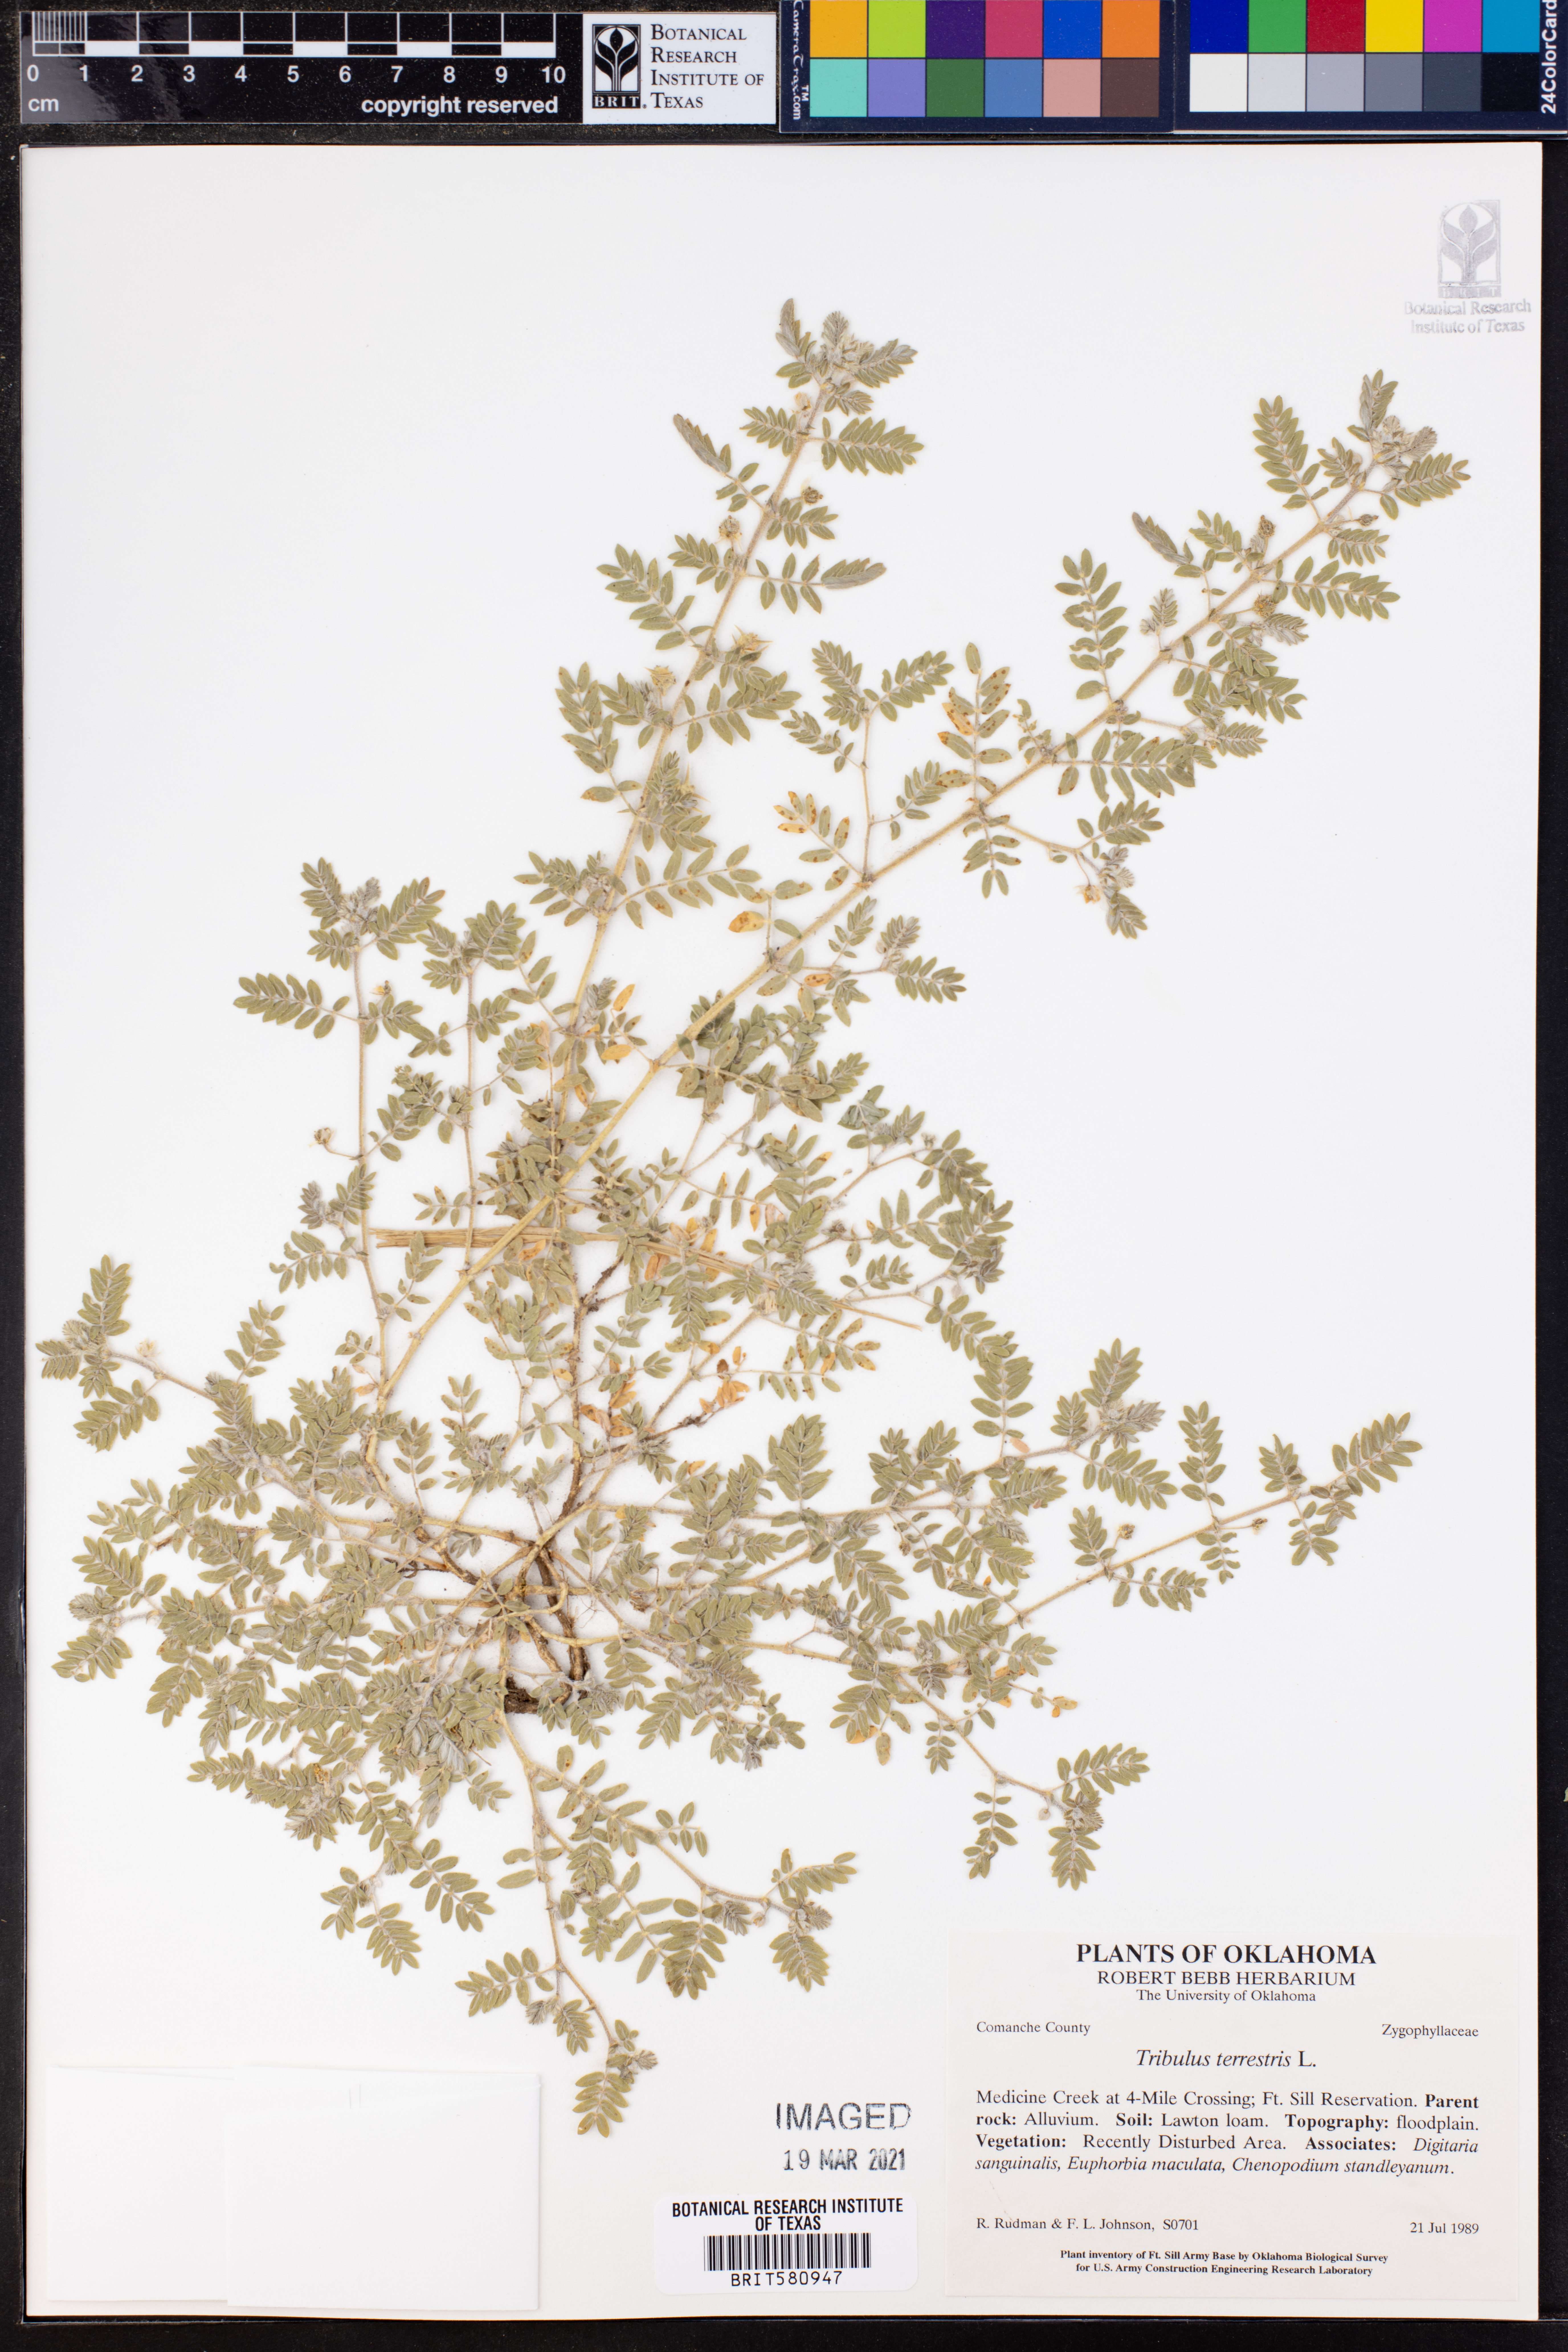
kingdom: Plantae
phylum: Tracheophyta
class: Magnoliopsida
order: Zygophyllales
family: Zygophyllaceae
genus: Tribulus
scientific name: Tribulus terrestris
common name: Puncturevine
